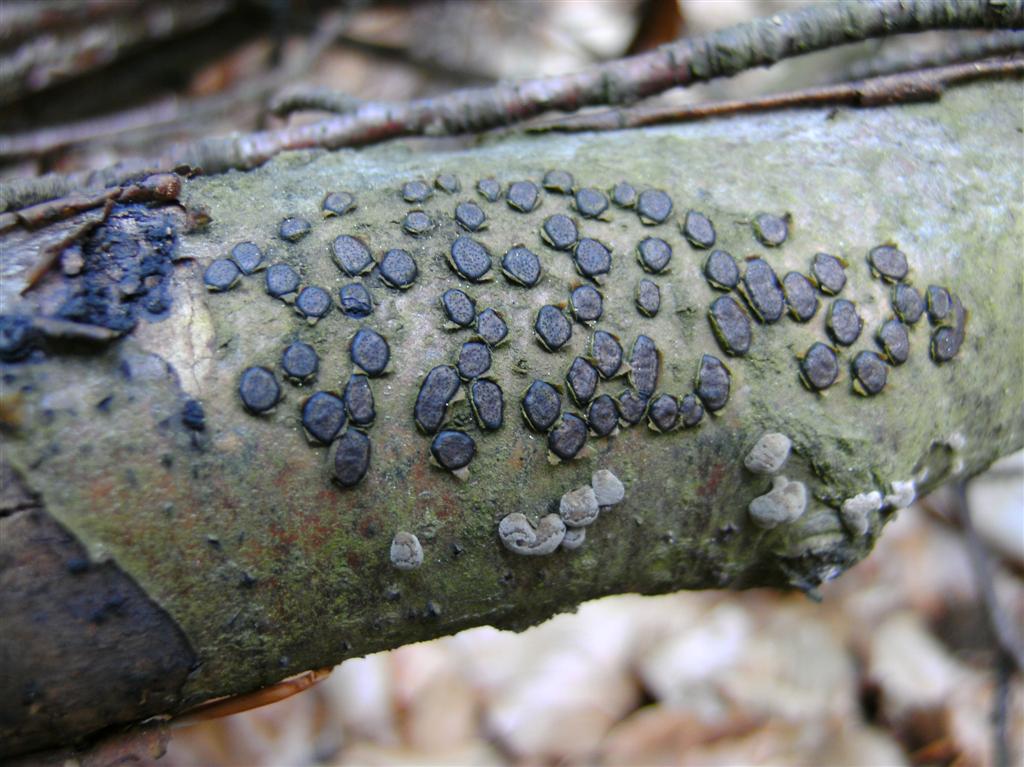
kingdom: Fungi
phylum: Ascomycota
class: Sordariomycetes
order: Xylariales
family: Diatrypaceae
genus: Diatrype
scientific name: Diatrype disciformis
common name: kant-kulskorpe
